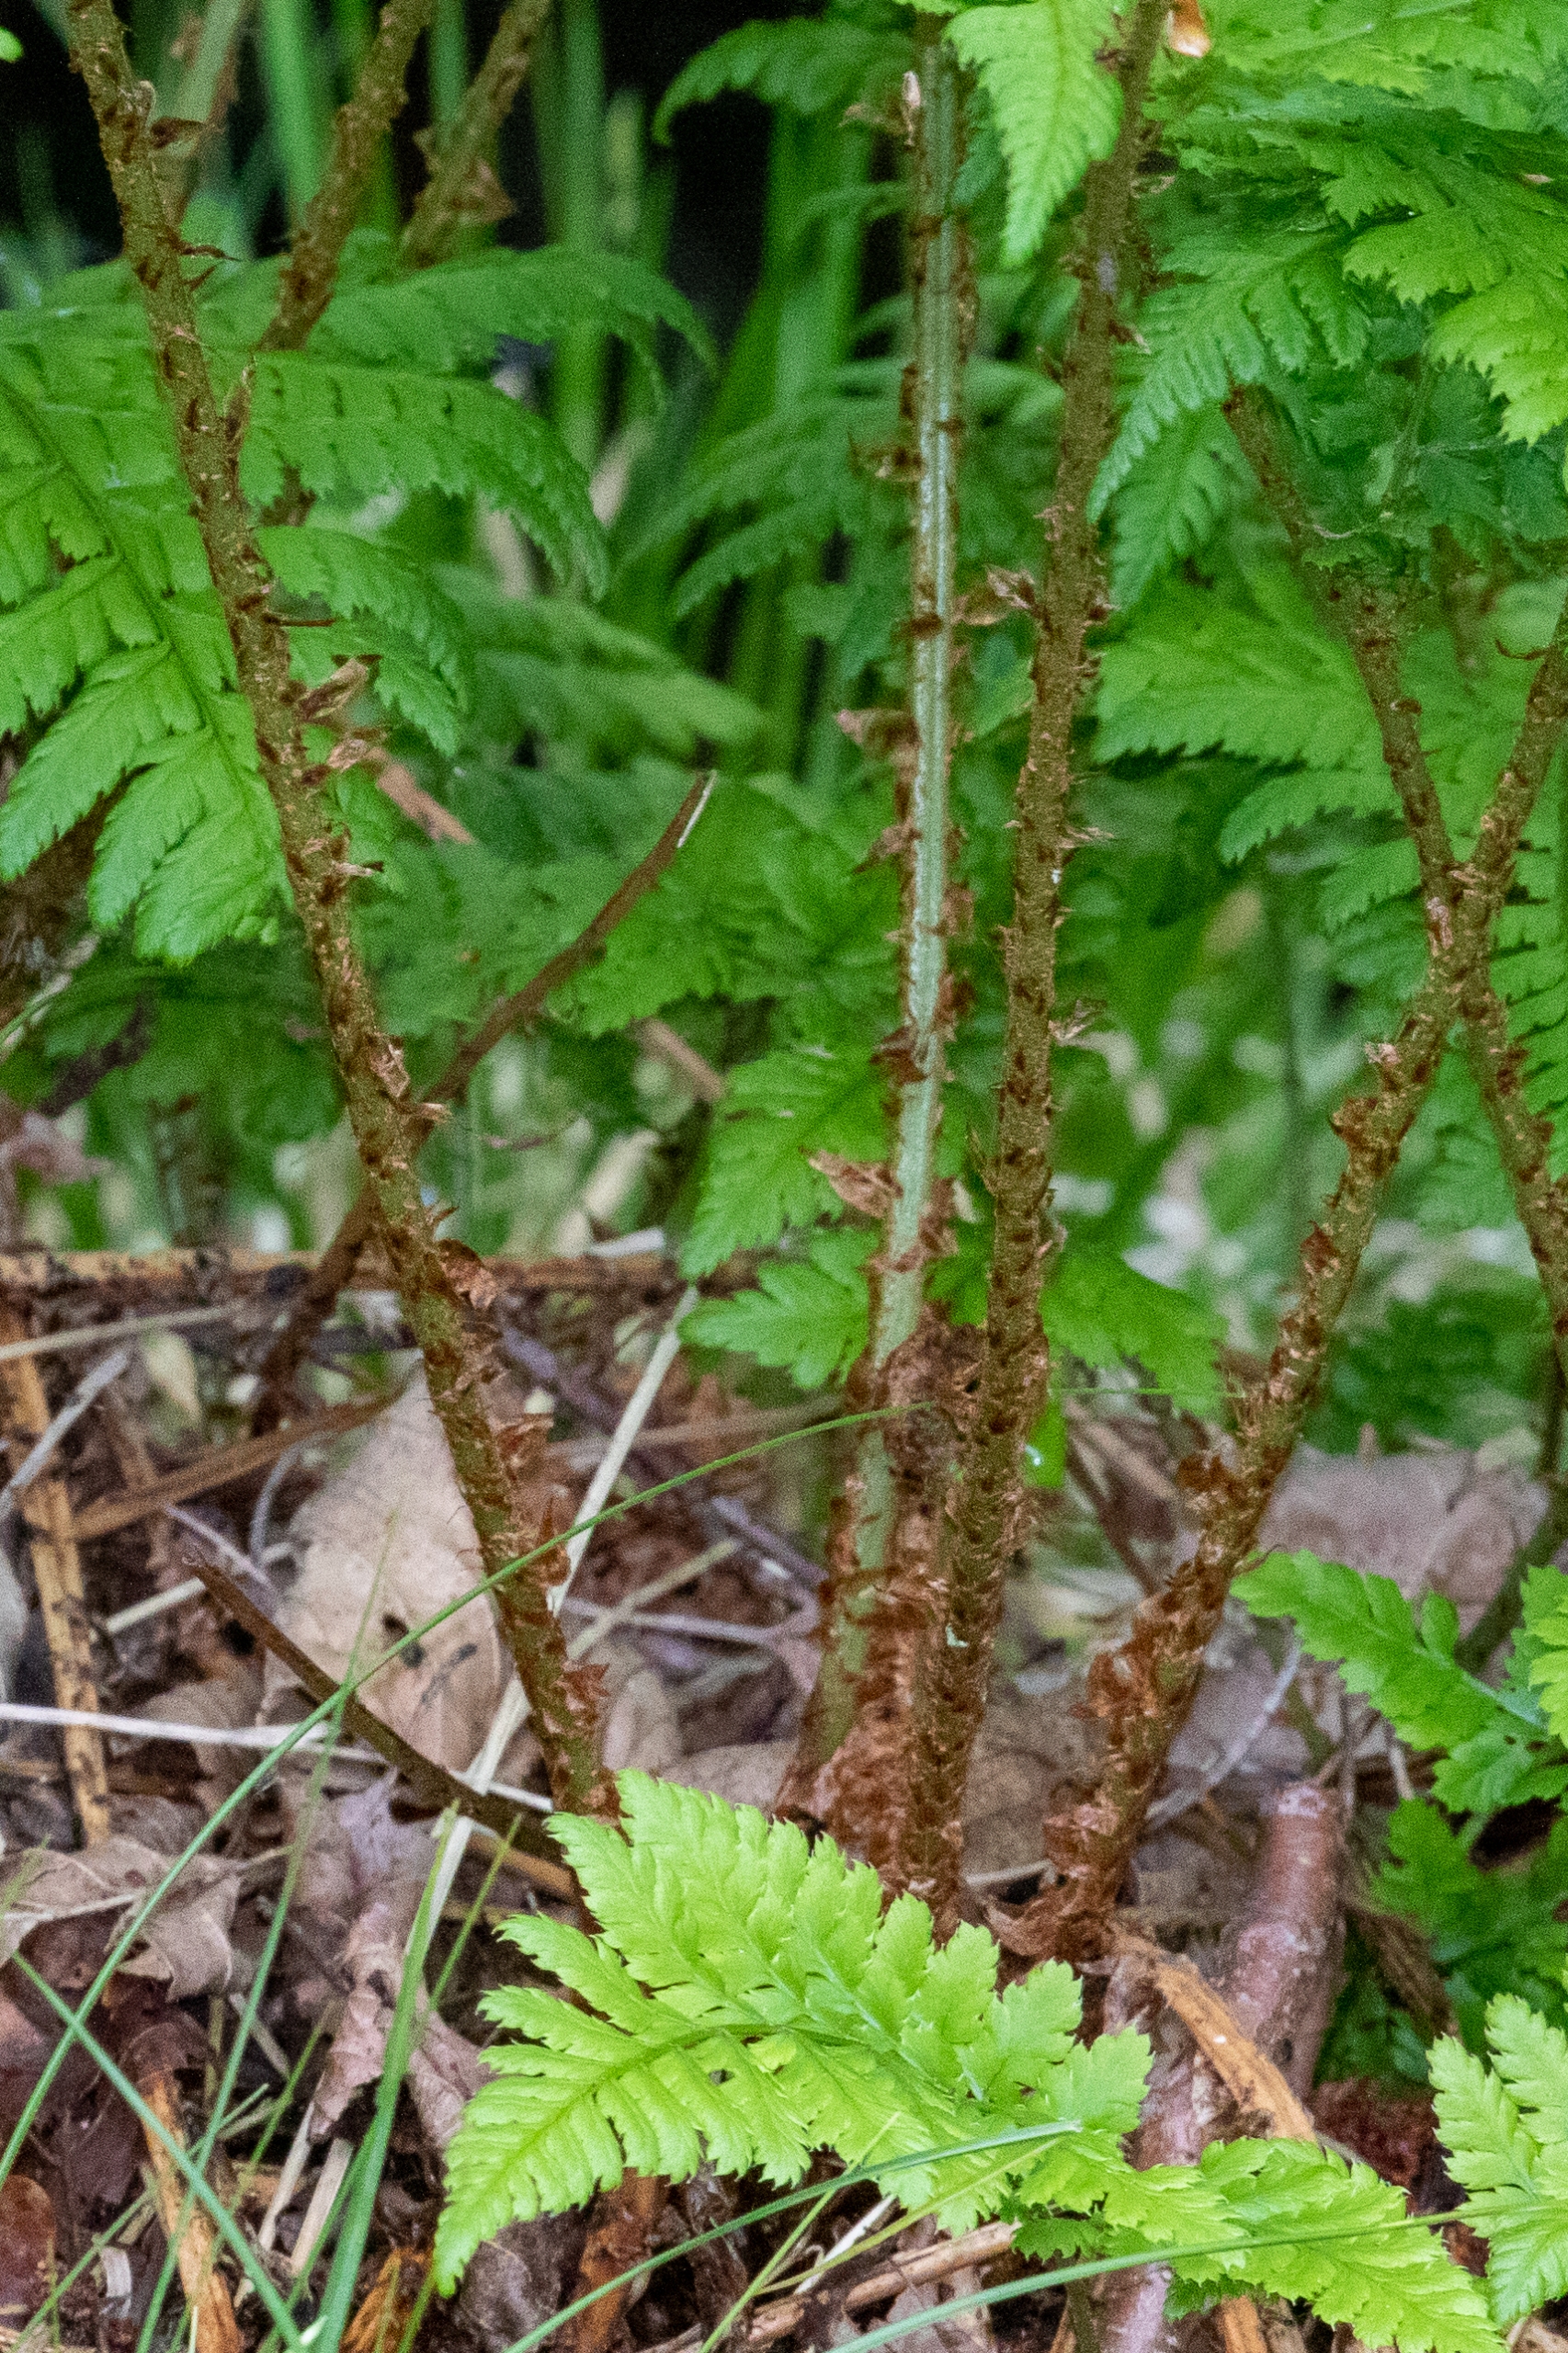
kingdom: Plantae
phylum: Tracheophyta
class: Polypodiopsida
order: Polypodiales
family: Dryopteridaceae
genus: Dryopteris
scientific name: Dryopteris dilatata
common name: Bredbladet mangeløv
